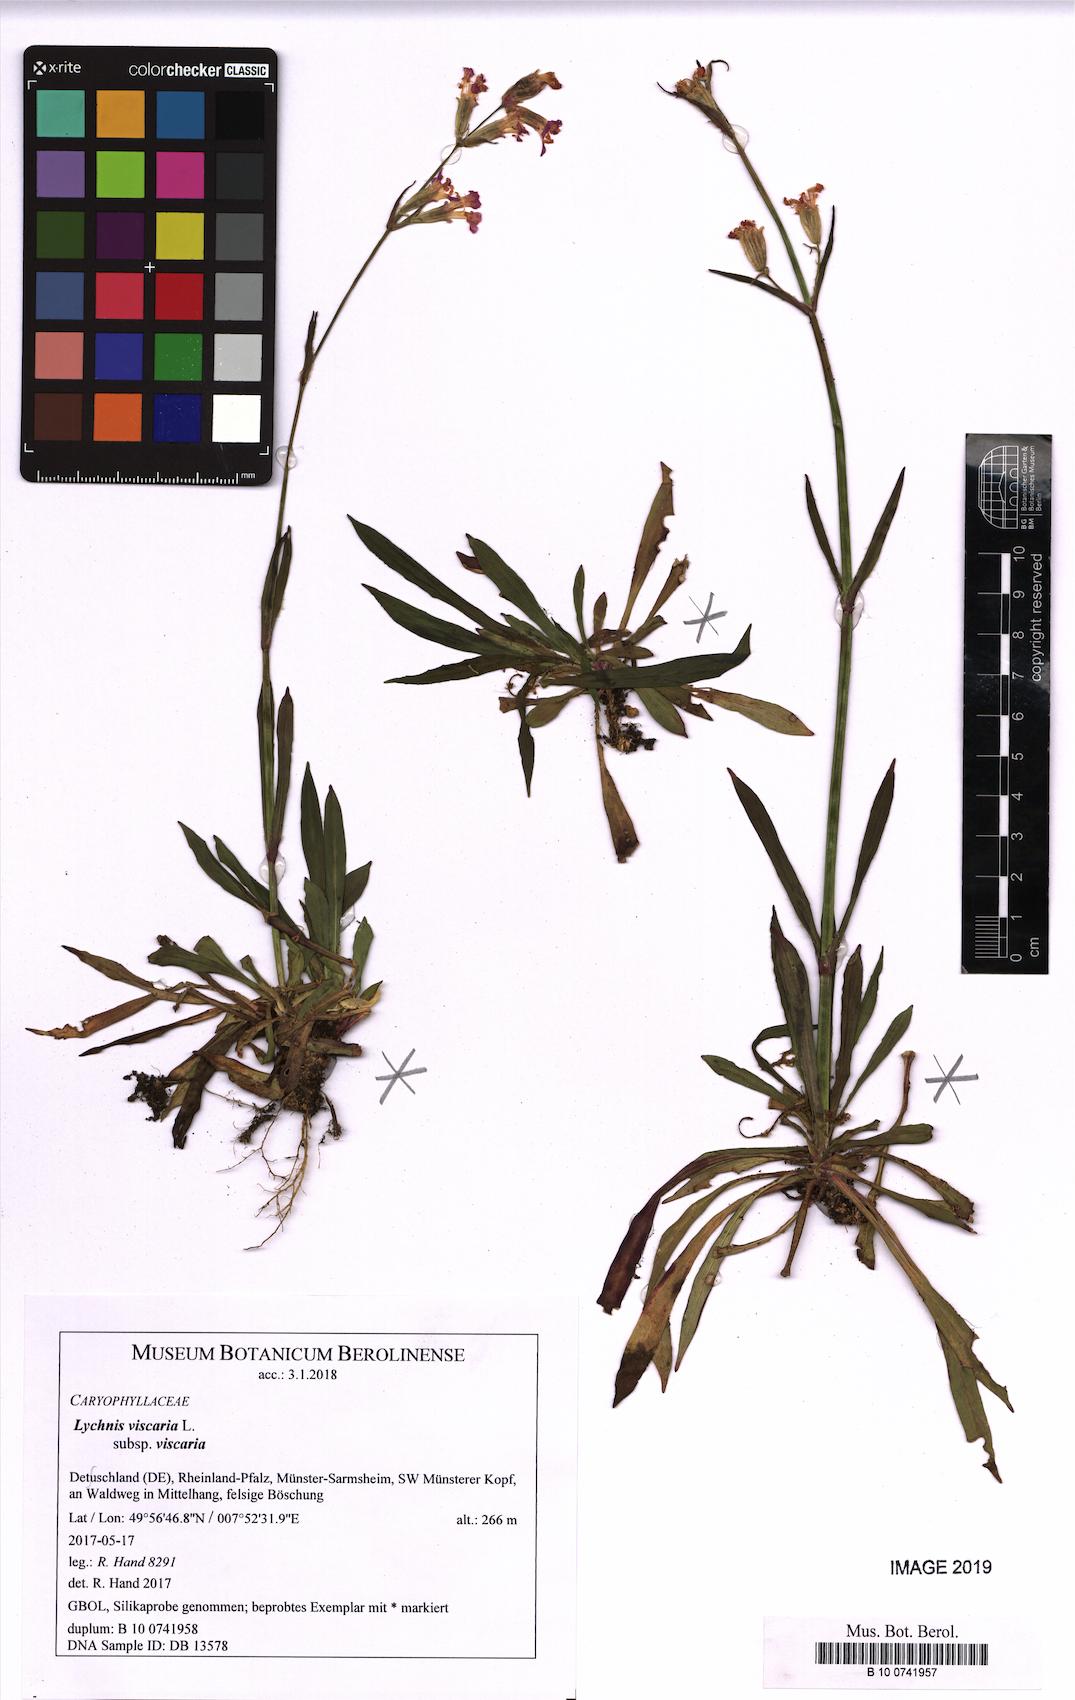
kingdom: Plantae
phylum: Tracheophyta
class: Magnoliopsida
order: Caryophyllales
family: Caryophyllaceae
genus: Viscaria
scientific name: Viscaria vulgaris
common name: Clammy campion
